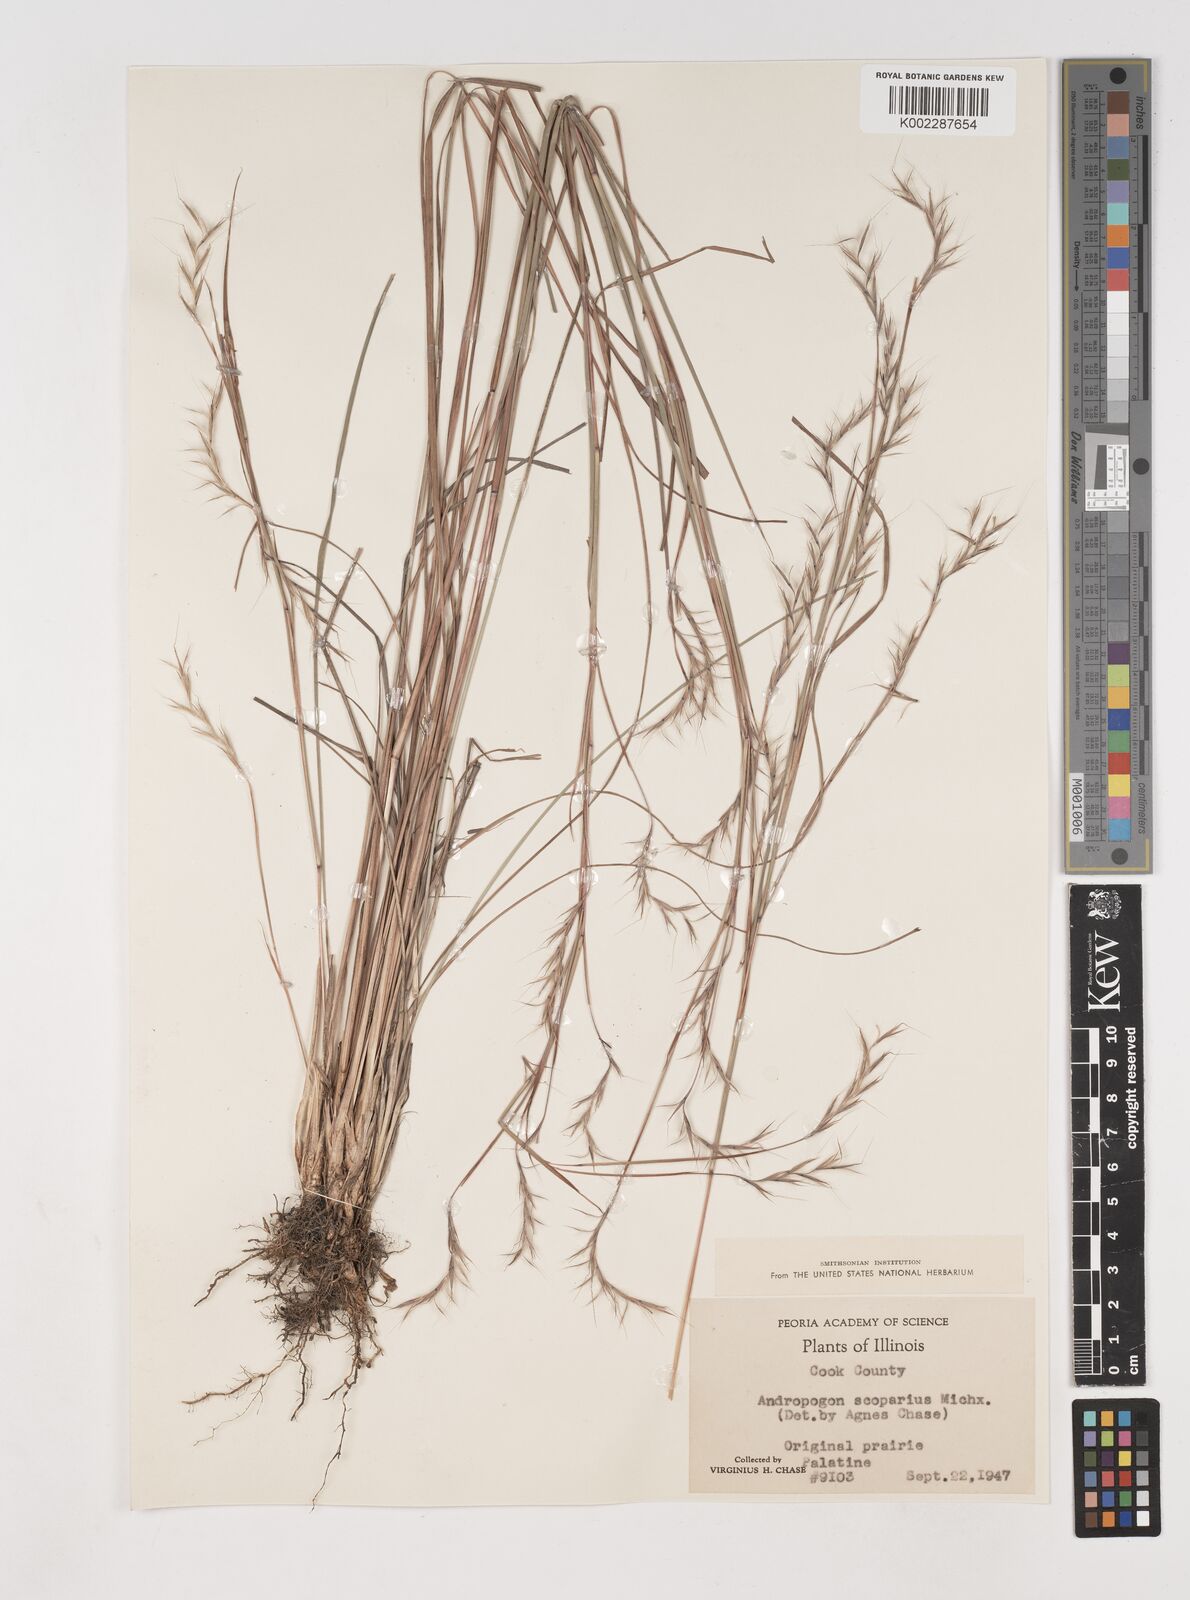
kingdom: Plantae
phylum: Tracheophyta
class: Liliopsida
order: Poales
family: Poaceae
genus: Schizachyrium
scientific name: Schizachyrium scoparium
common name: Little bluestem
